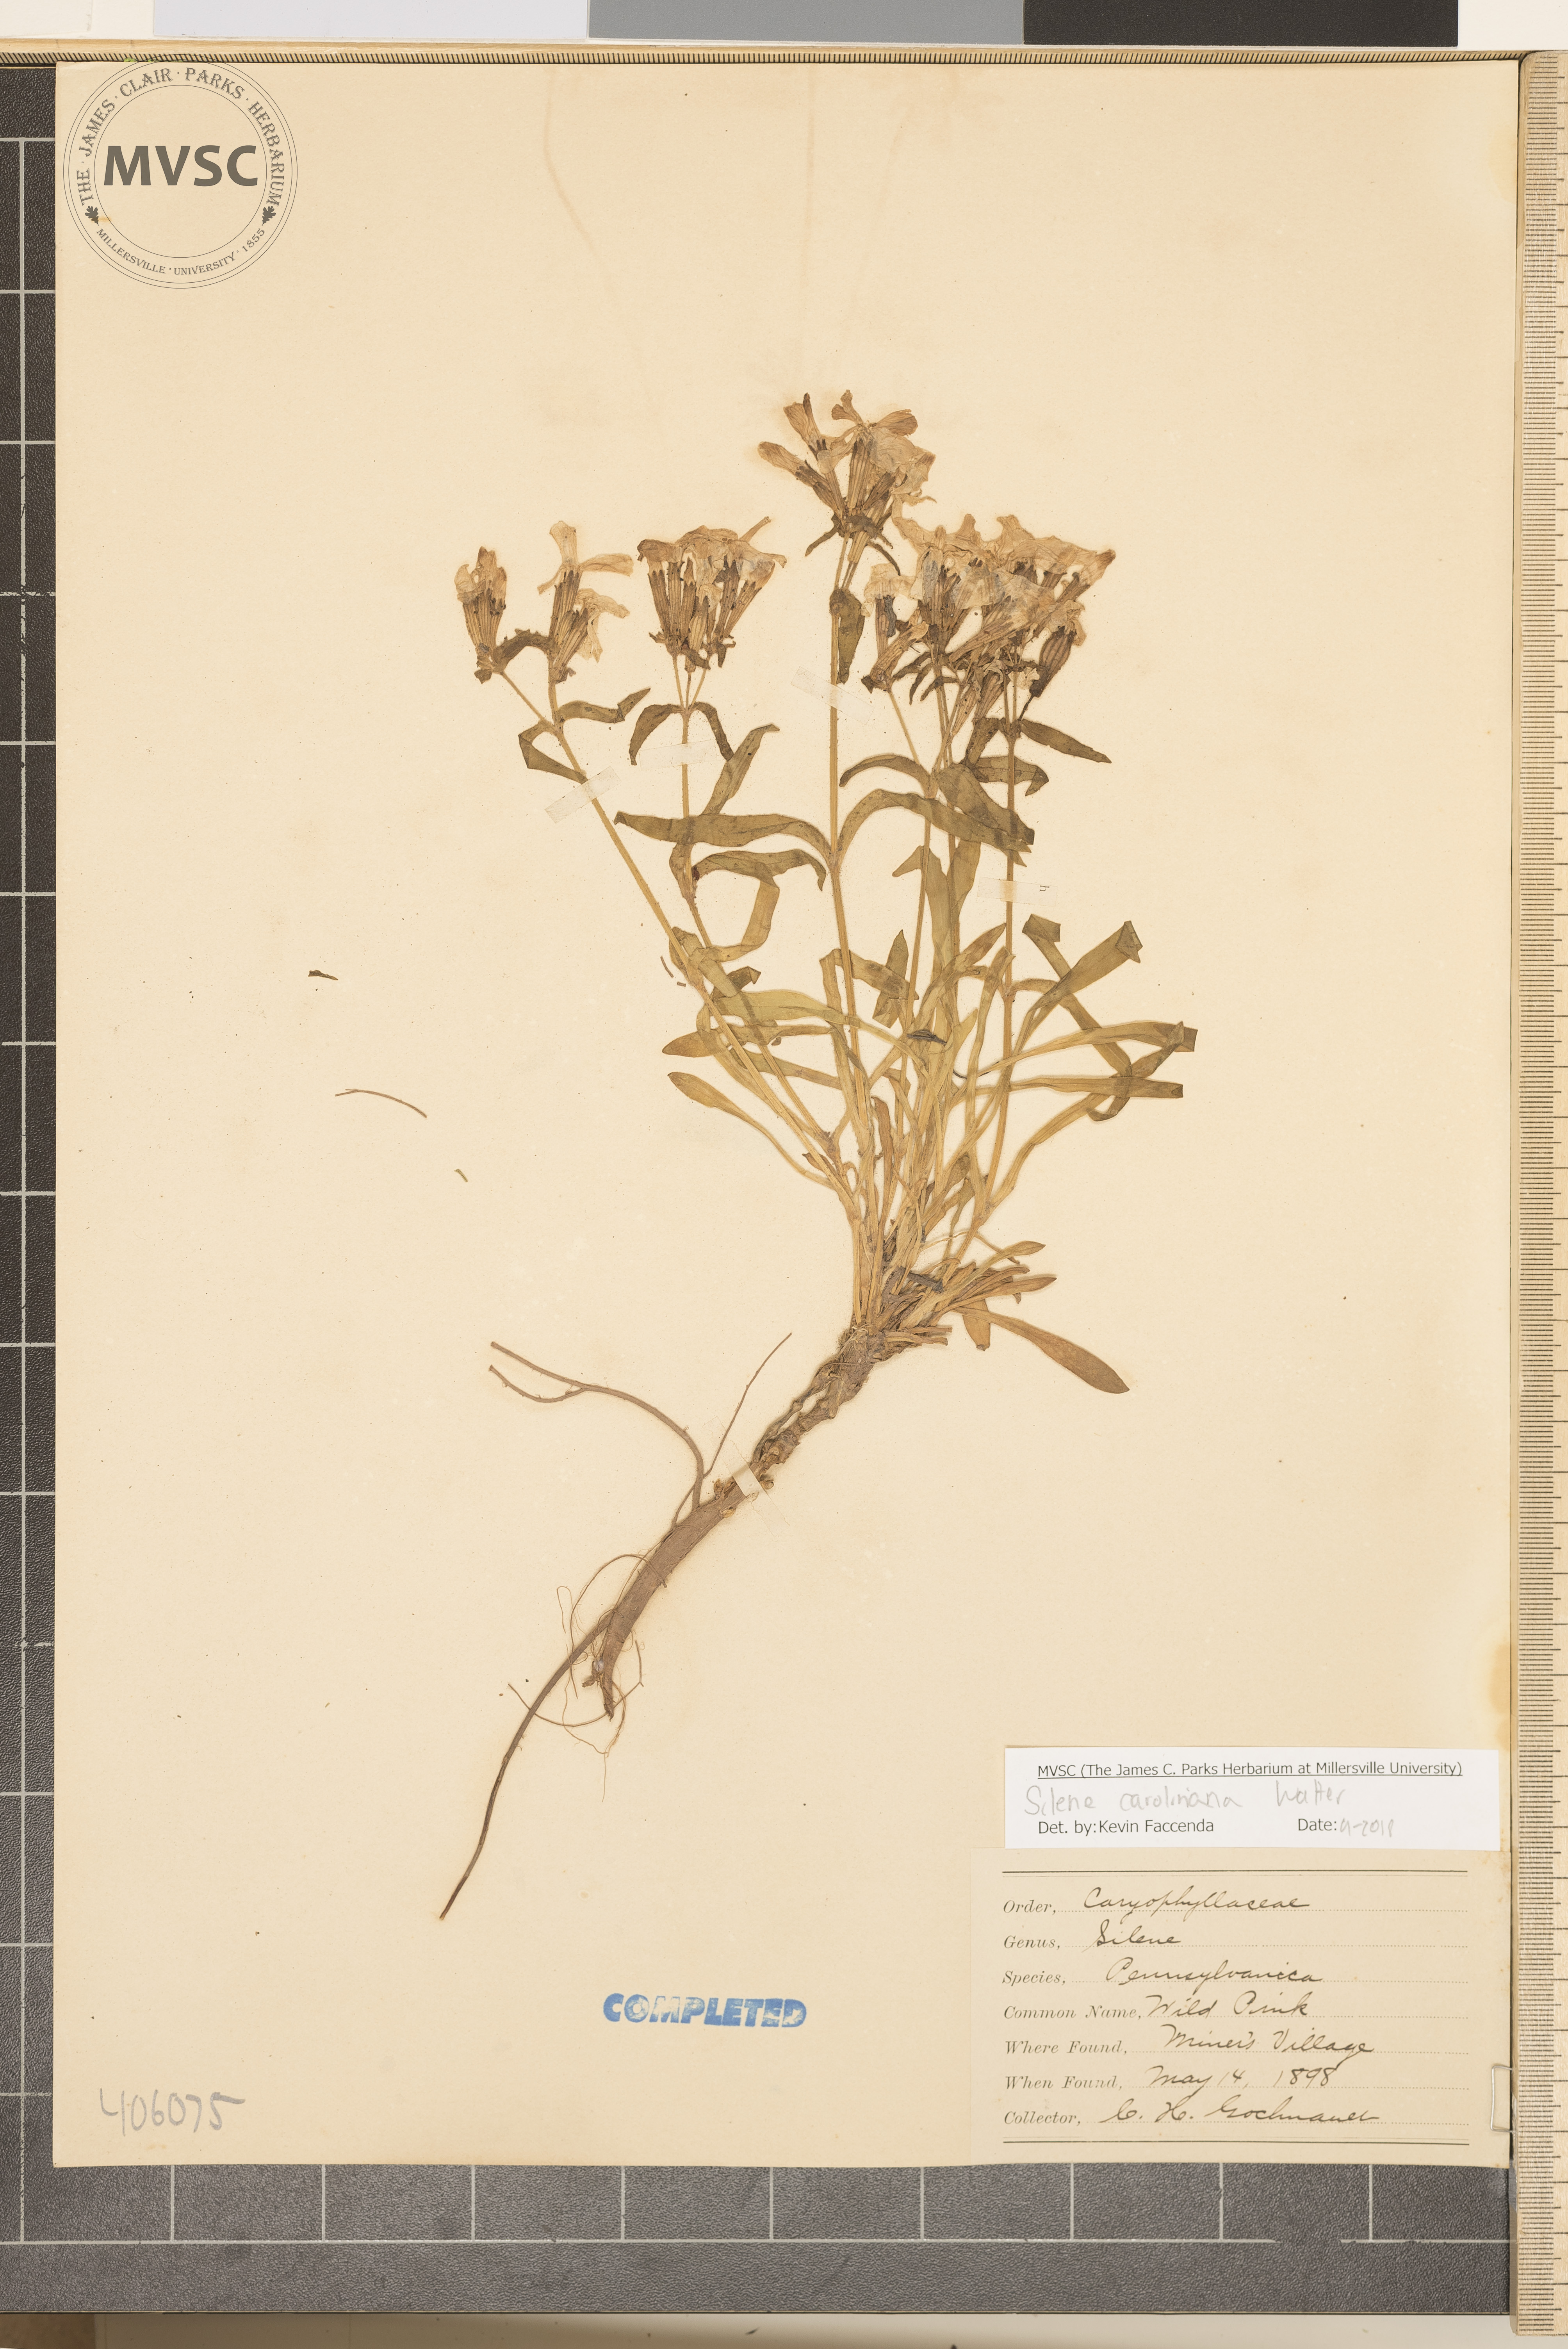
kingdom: Plantae
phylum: Tracheophyta
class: Magnoliopsida
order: Caryophyllales
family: Caryophyllaceae
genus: Silene
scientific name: Silene caroliniana
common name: Sticky catchfly
